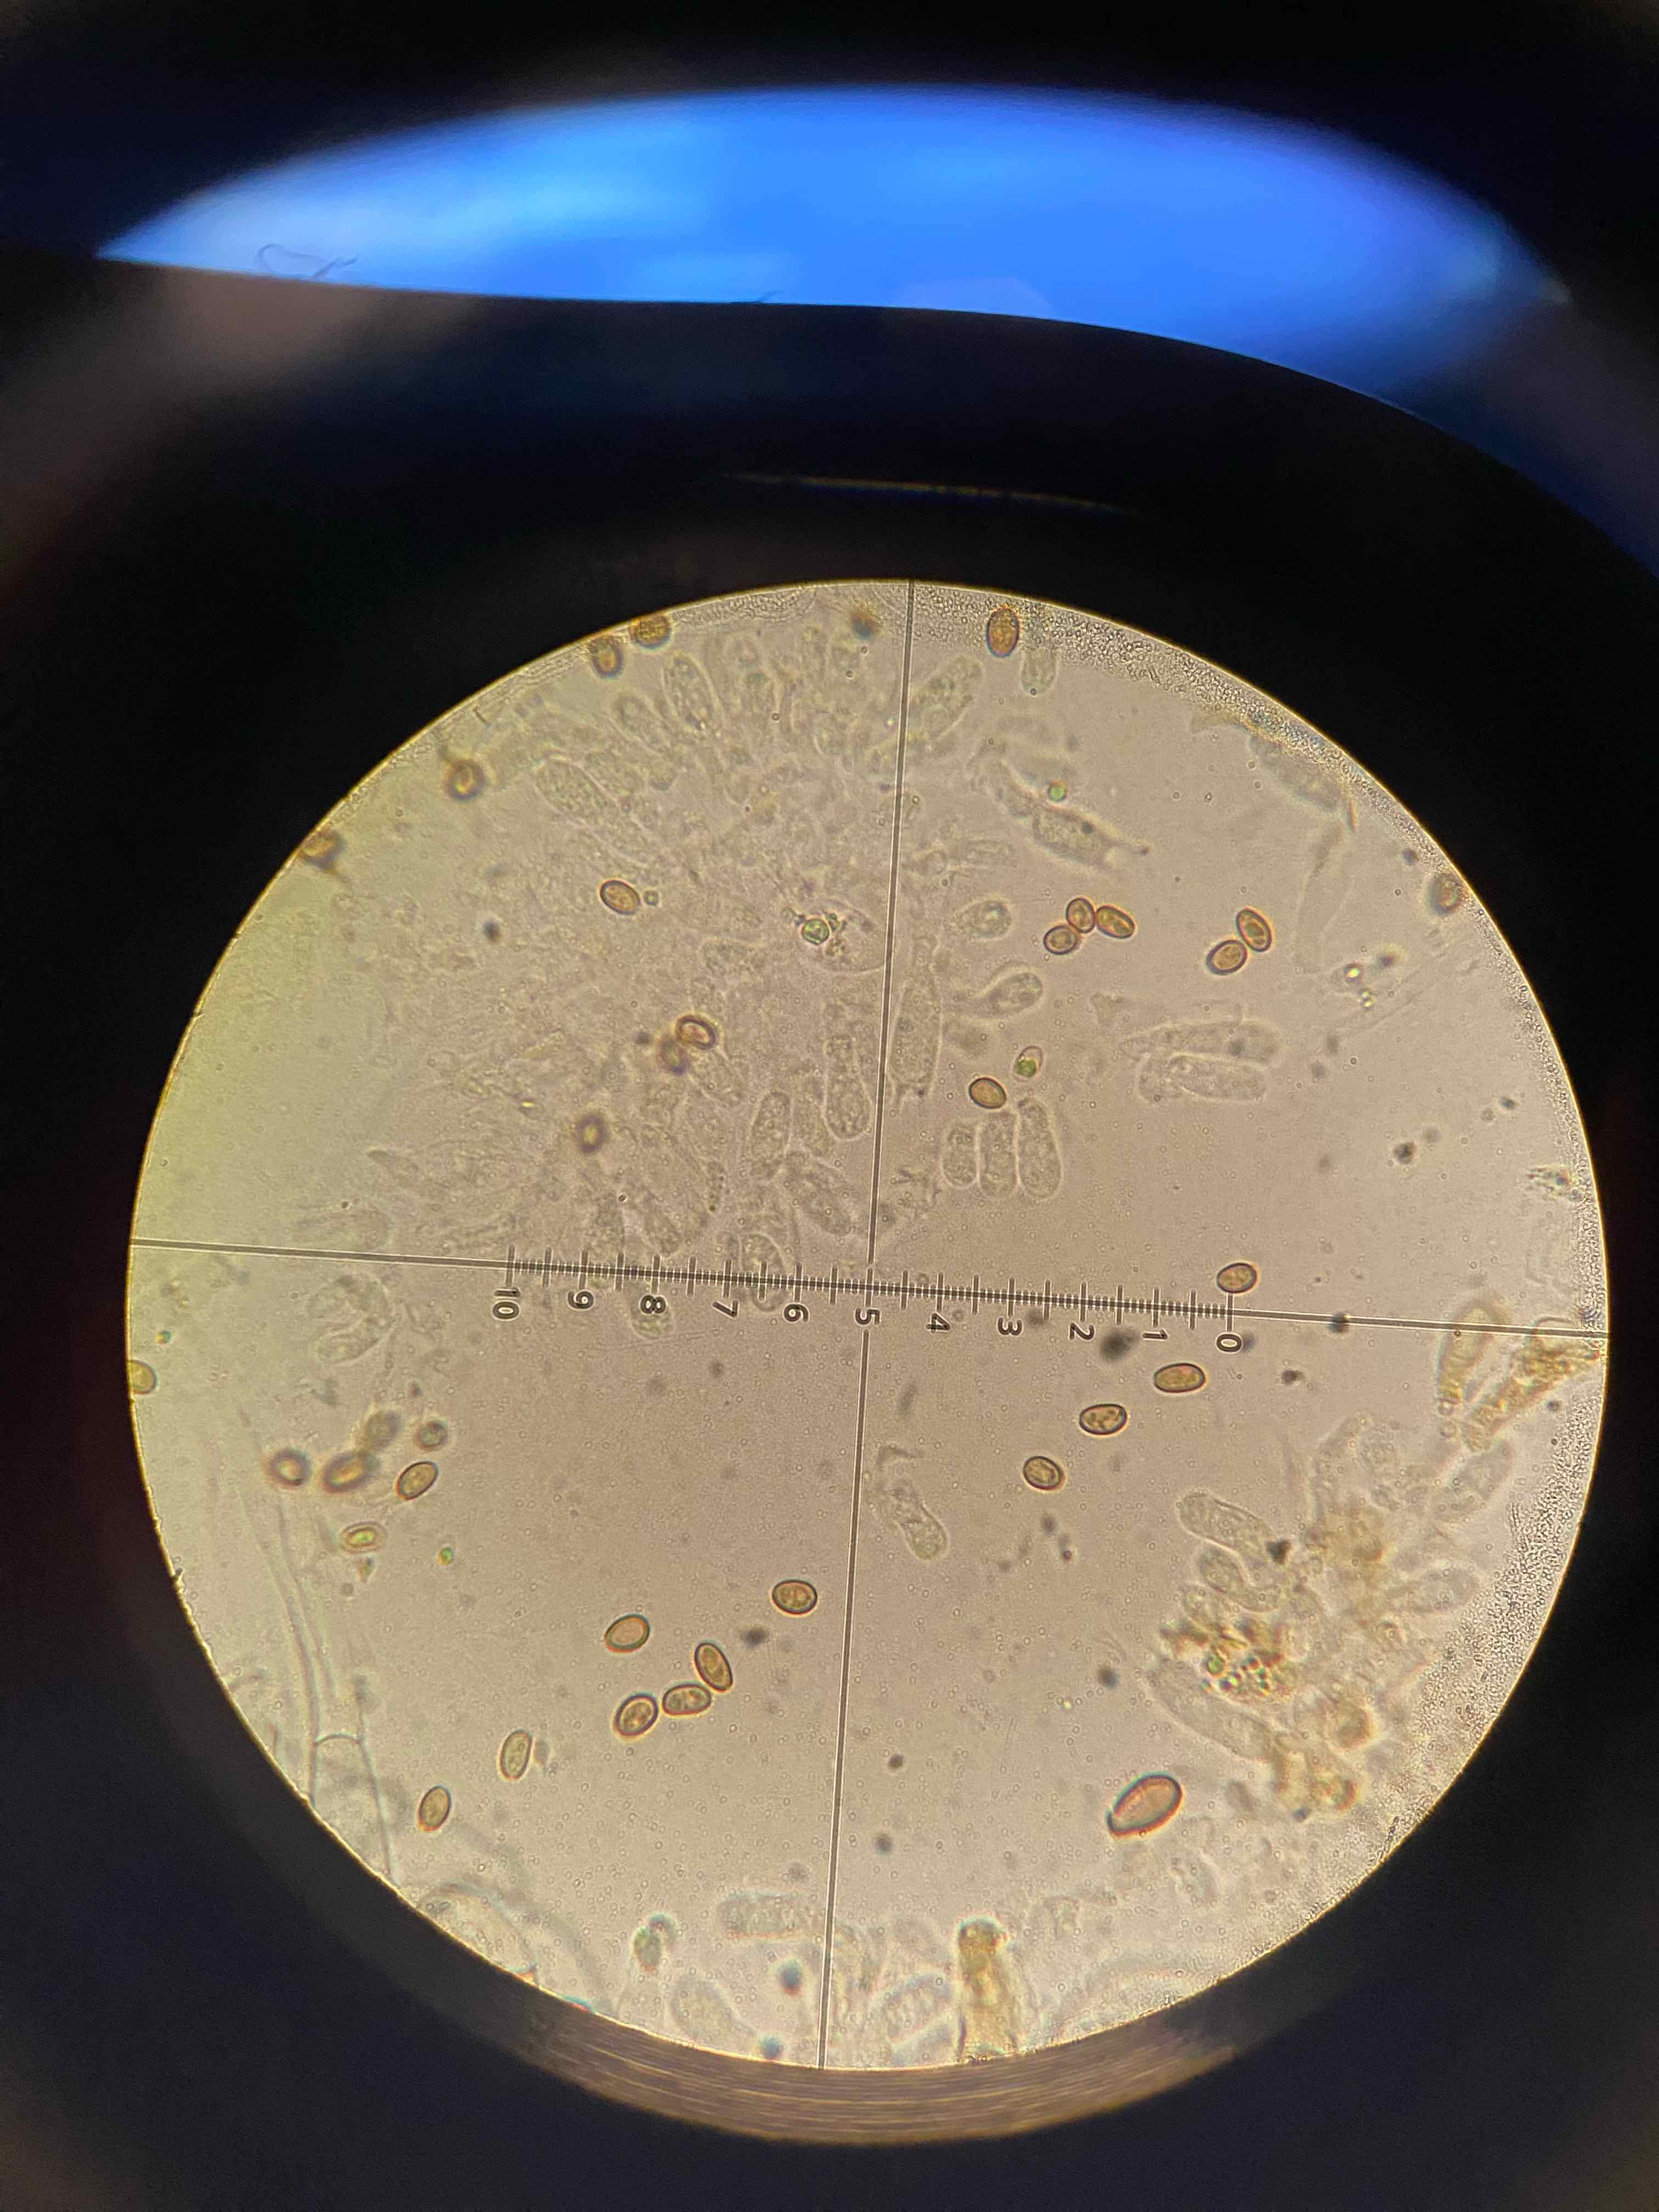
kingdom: Fungi
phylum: Basidiomycota
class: Agaricomycetes
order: Agaricales
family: Strophariaceae
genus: Pholiota
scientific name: Pholiota gummosa
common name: grøngul skælhat
